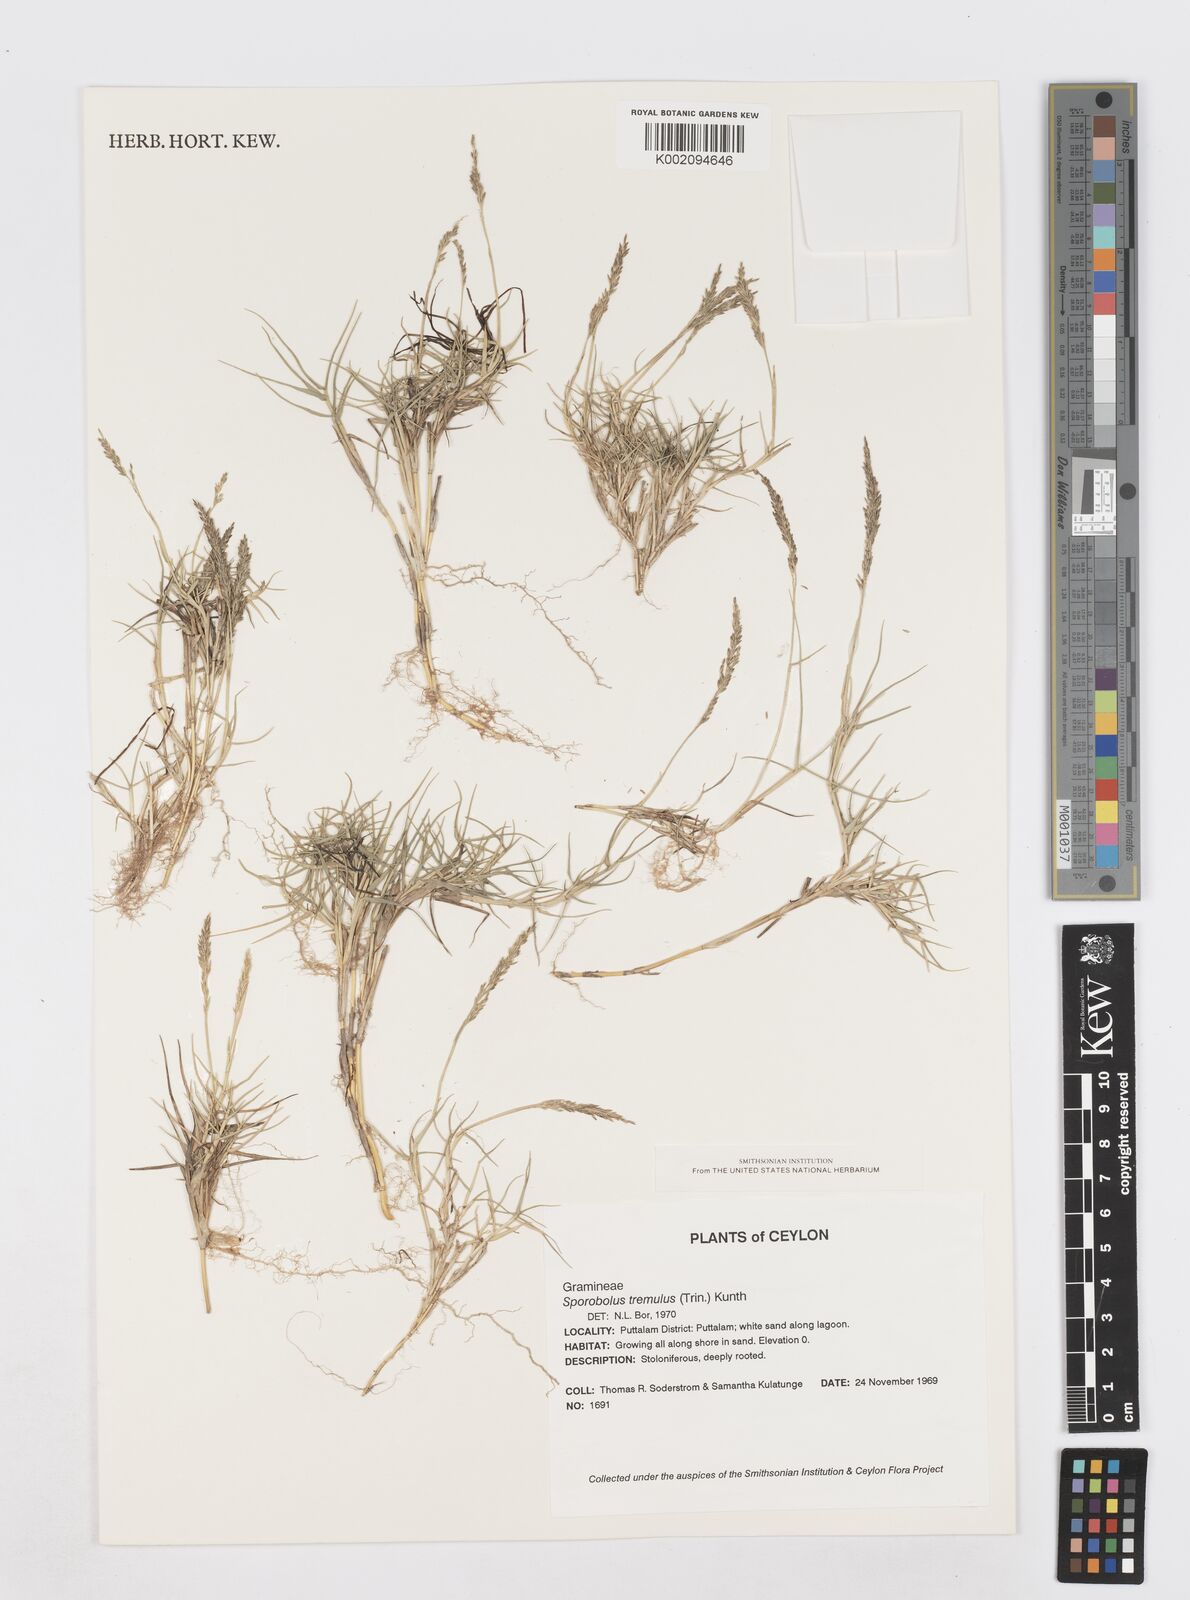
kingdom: Plantae
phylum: Tracheophyta
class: Liliopsida
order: Poales
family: Poaceae
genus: Sporobolus
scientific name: Sporobolus virginicus
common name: Beach dropseed
